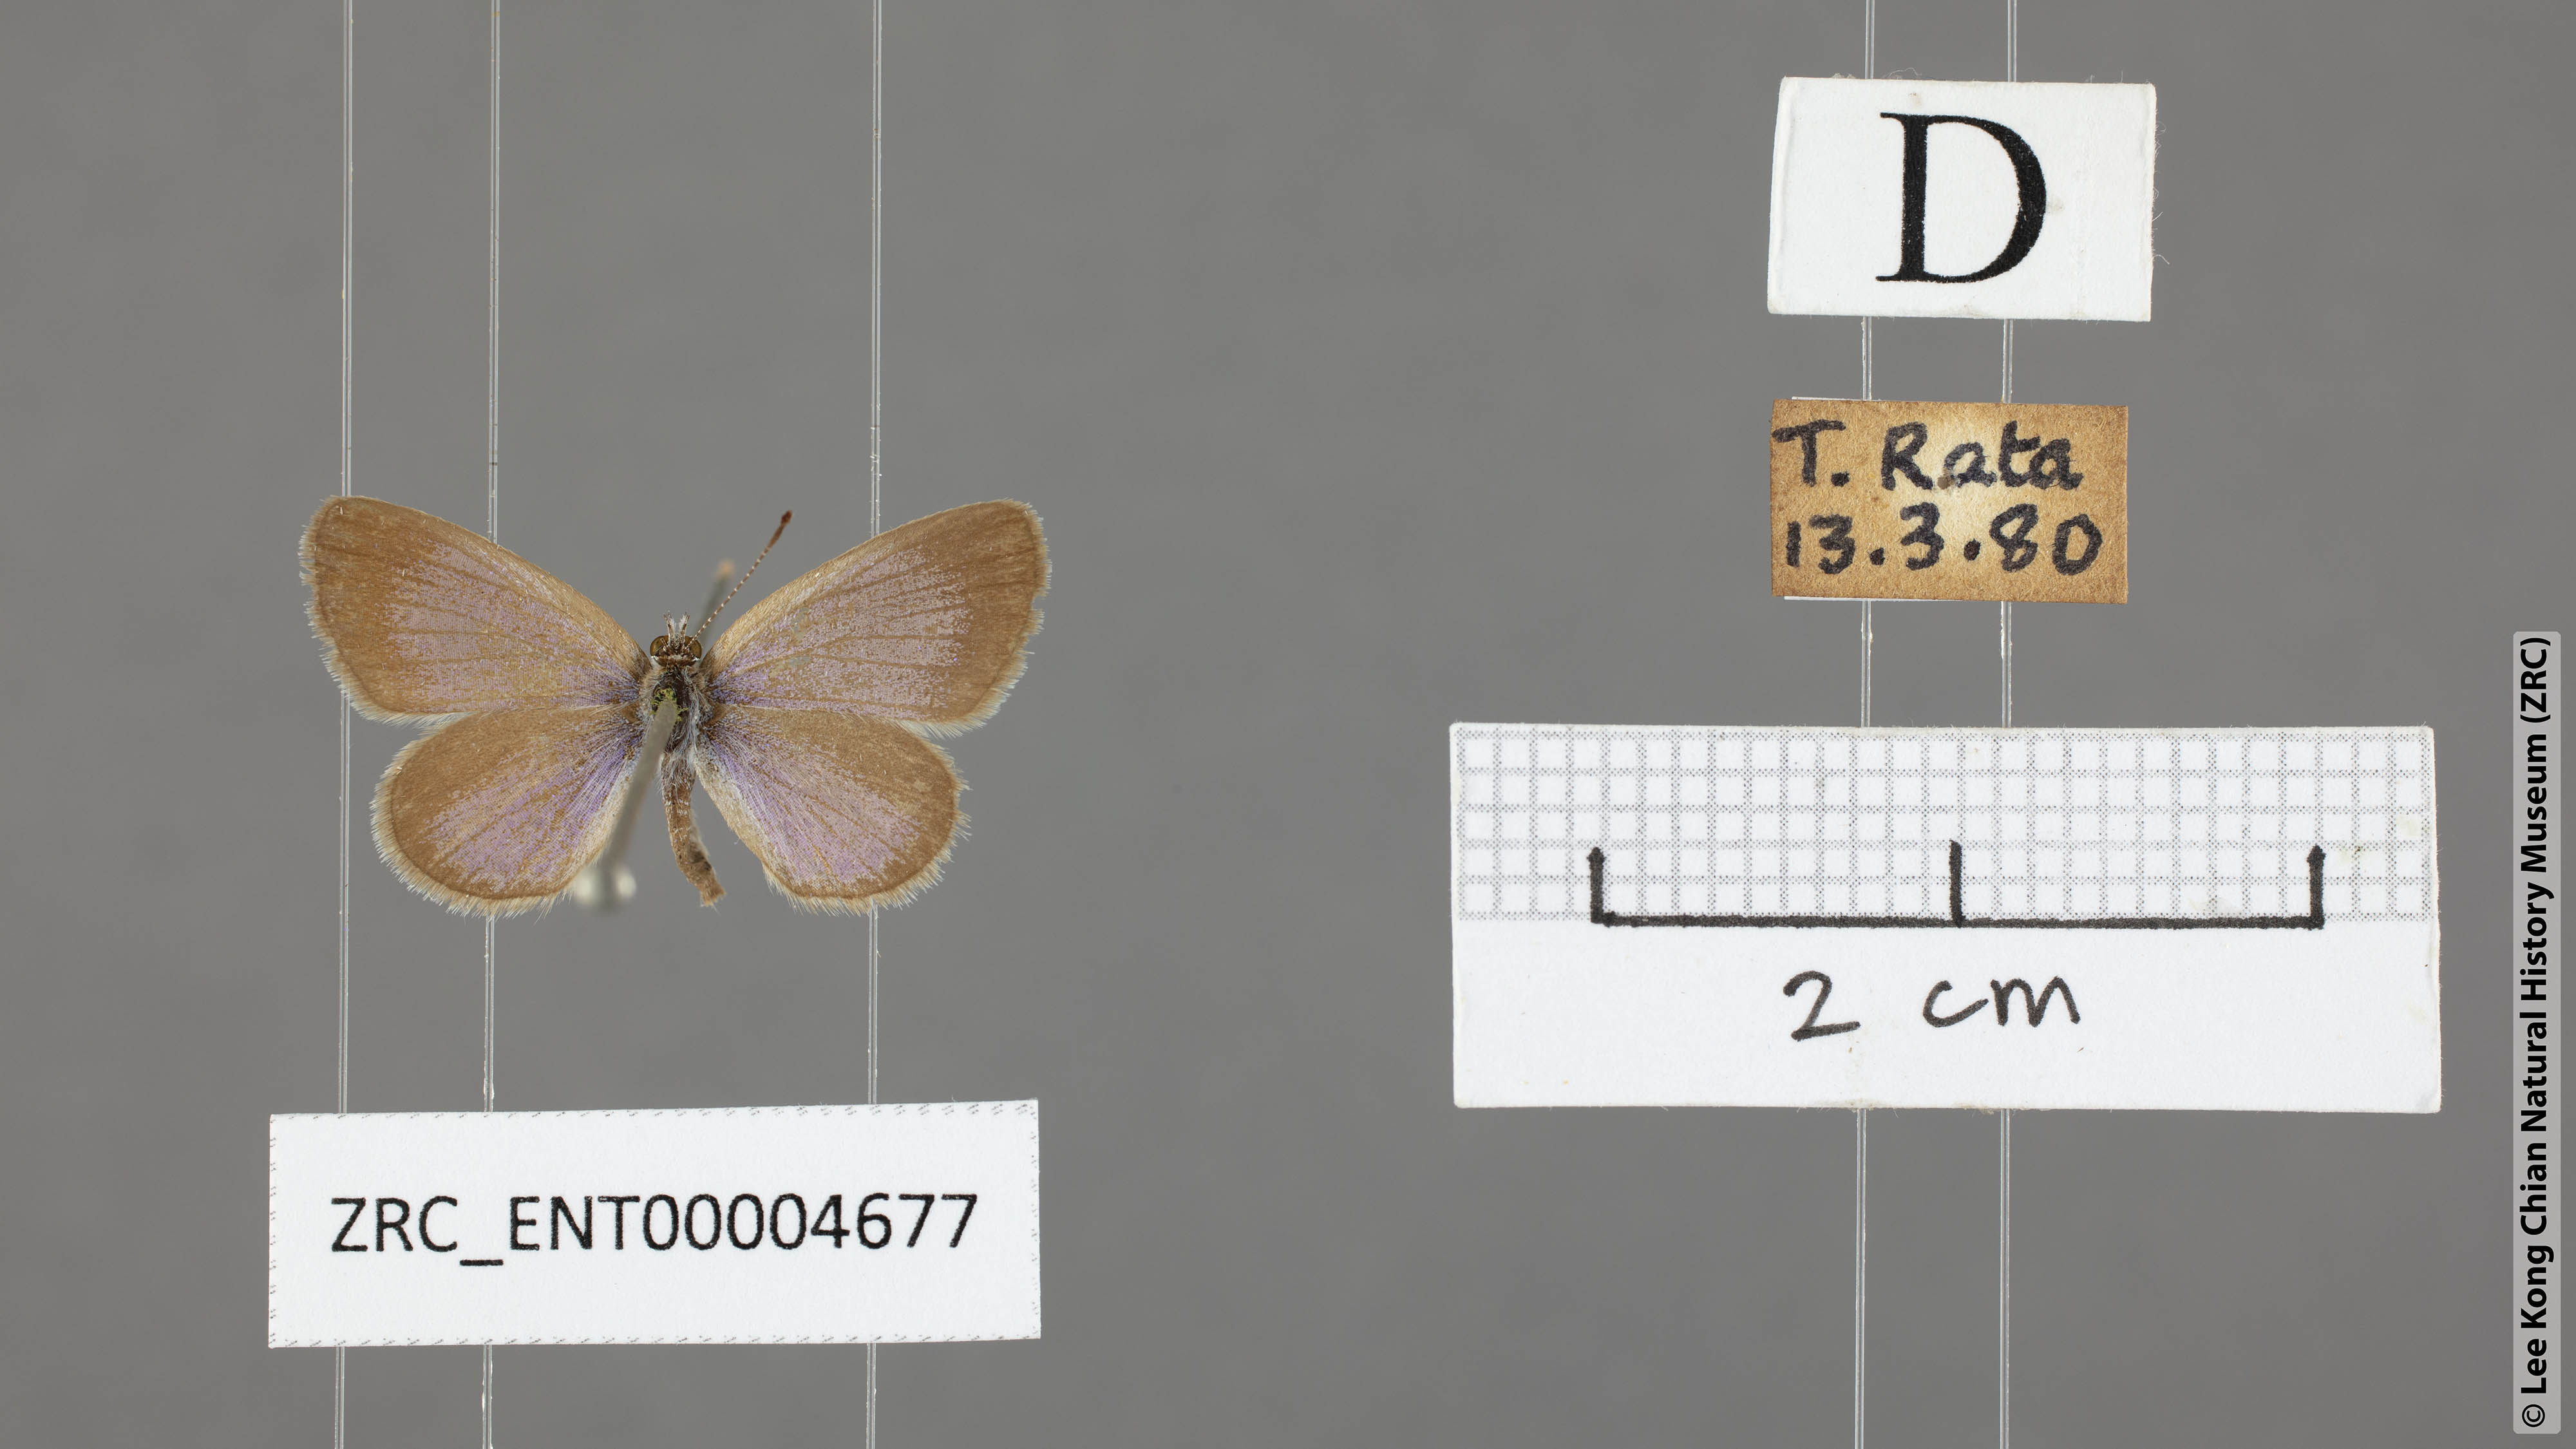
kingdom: Animalia
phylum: Arthropoda
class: Insecta
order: Lepidoptera
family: Lycaenidae
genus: Zizina
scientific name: Zizina otis
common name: Lesser grass blue
